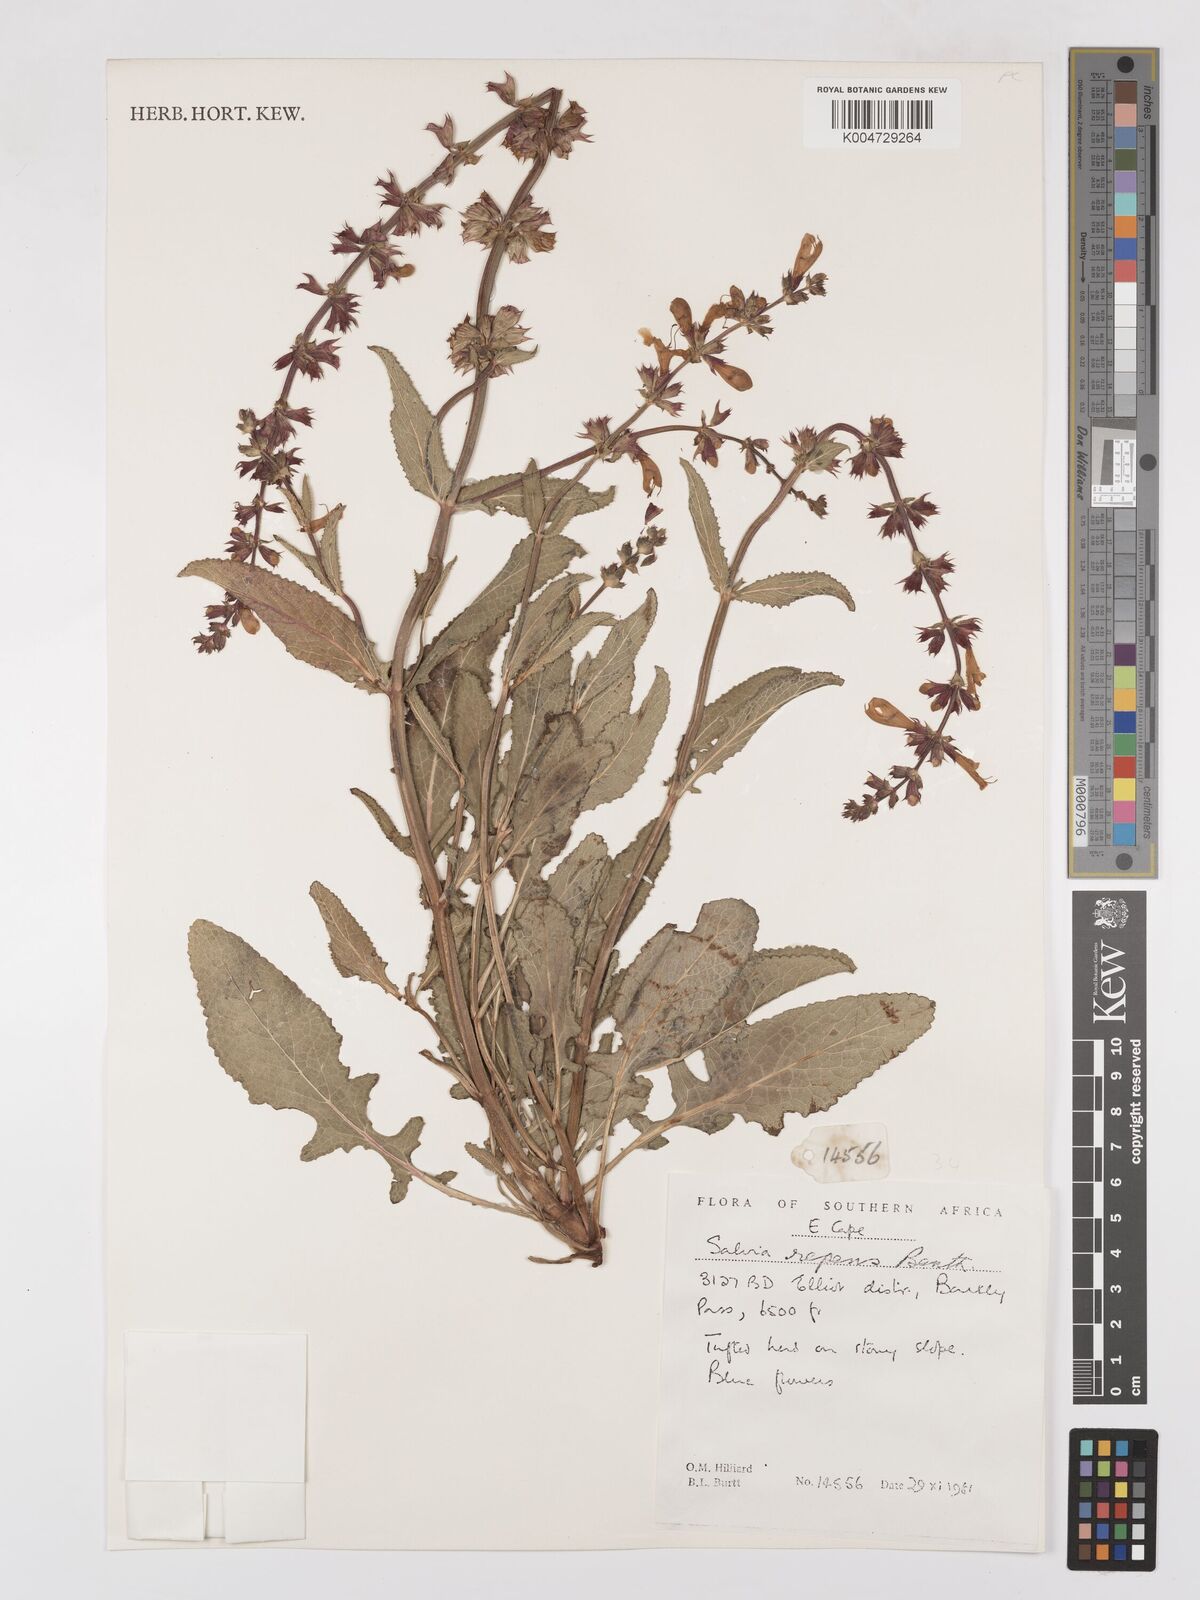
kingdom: Plantae
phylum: Tracheophyta
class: Magnoliopsida
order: Lamiales
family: Lamiaceae
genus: Salvia
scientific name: Salvia repens
